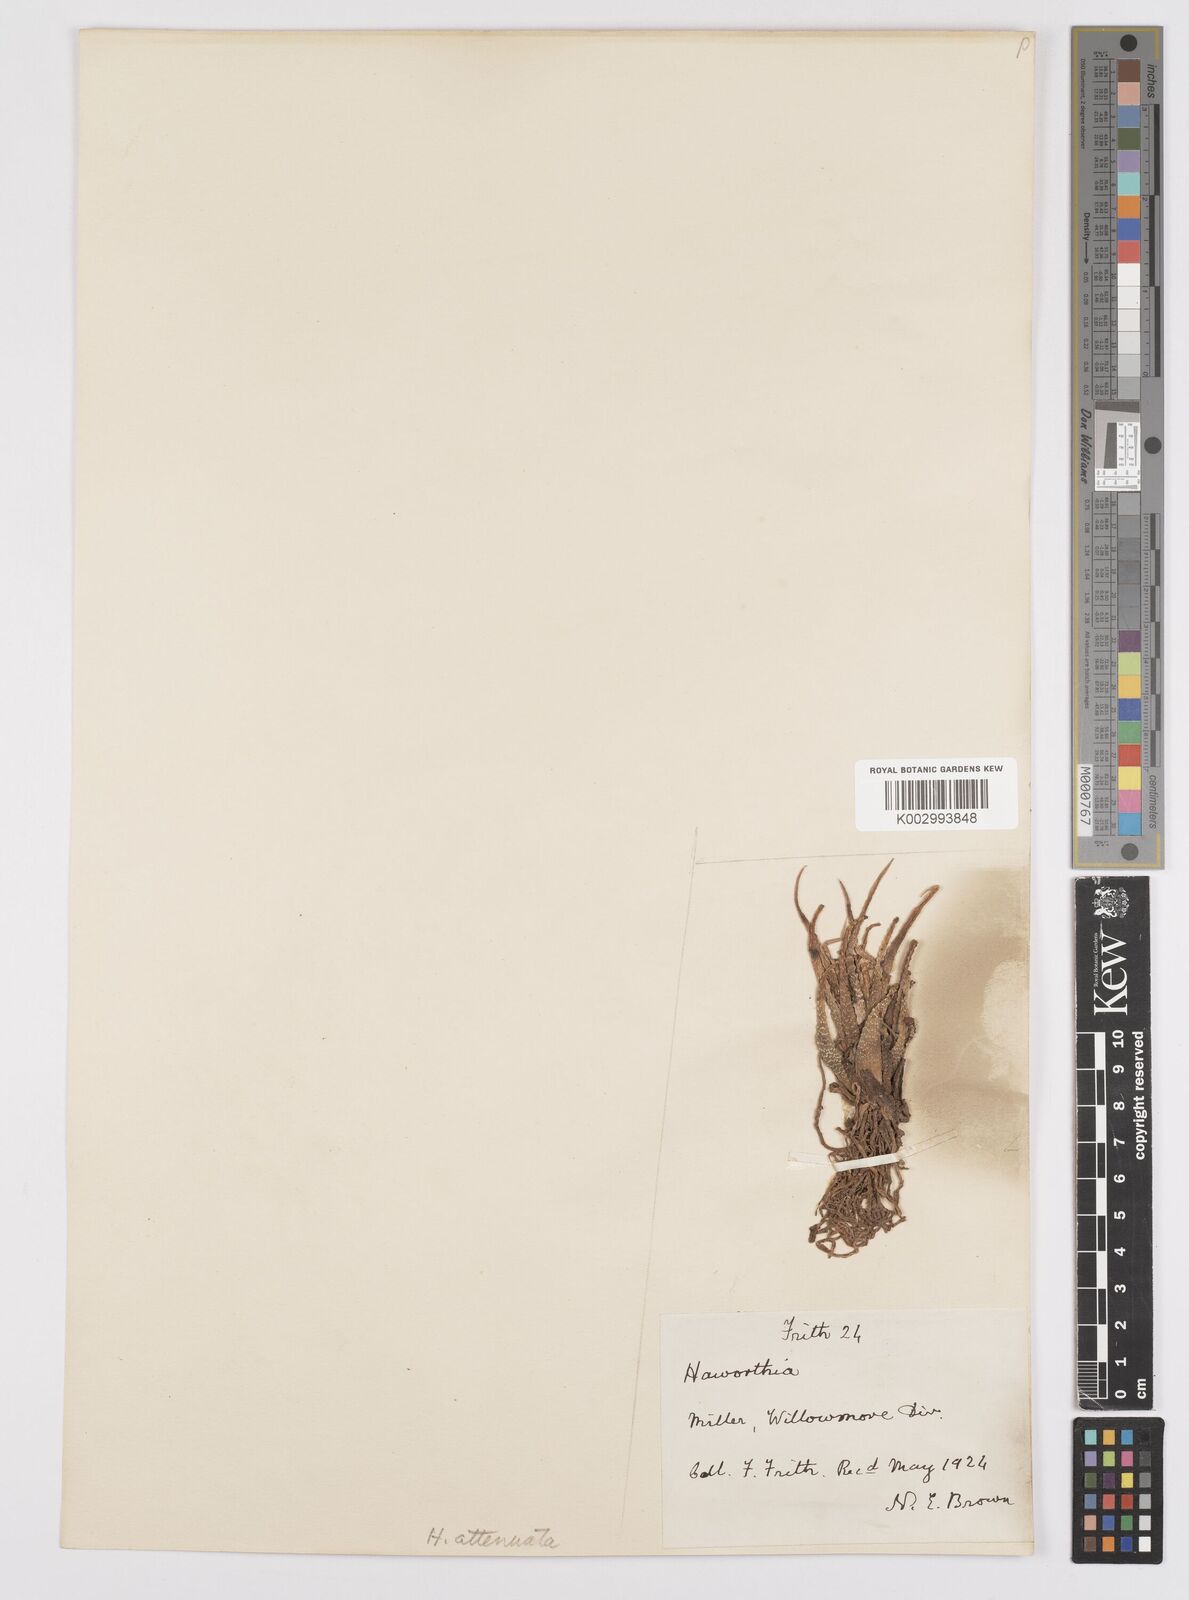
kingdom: Plantae
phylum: Tracheophyta
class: Liliopsida
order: Asparagales
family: Asphodelaceae
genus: Haworthiopsis
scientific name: Haworthiopsis attenuata
